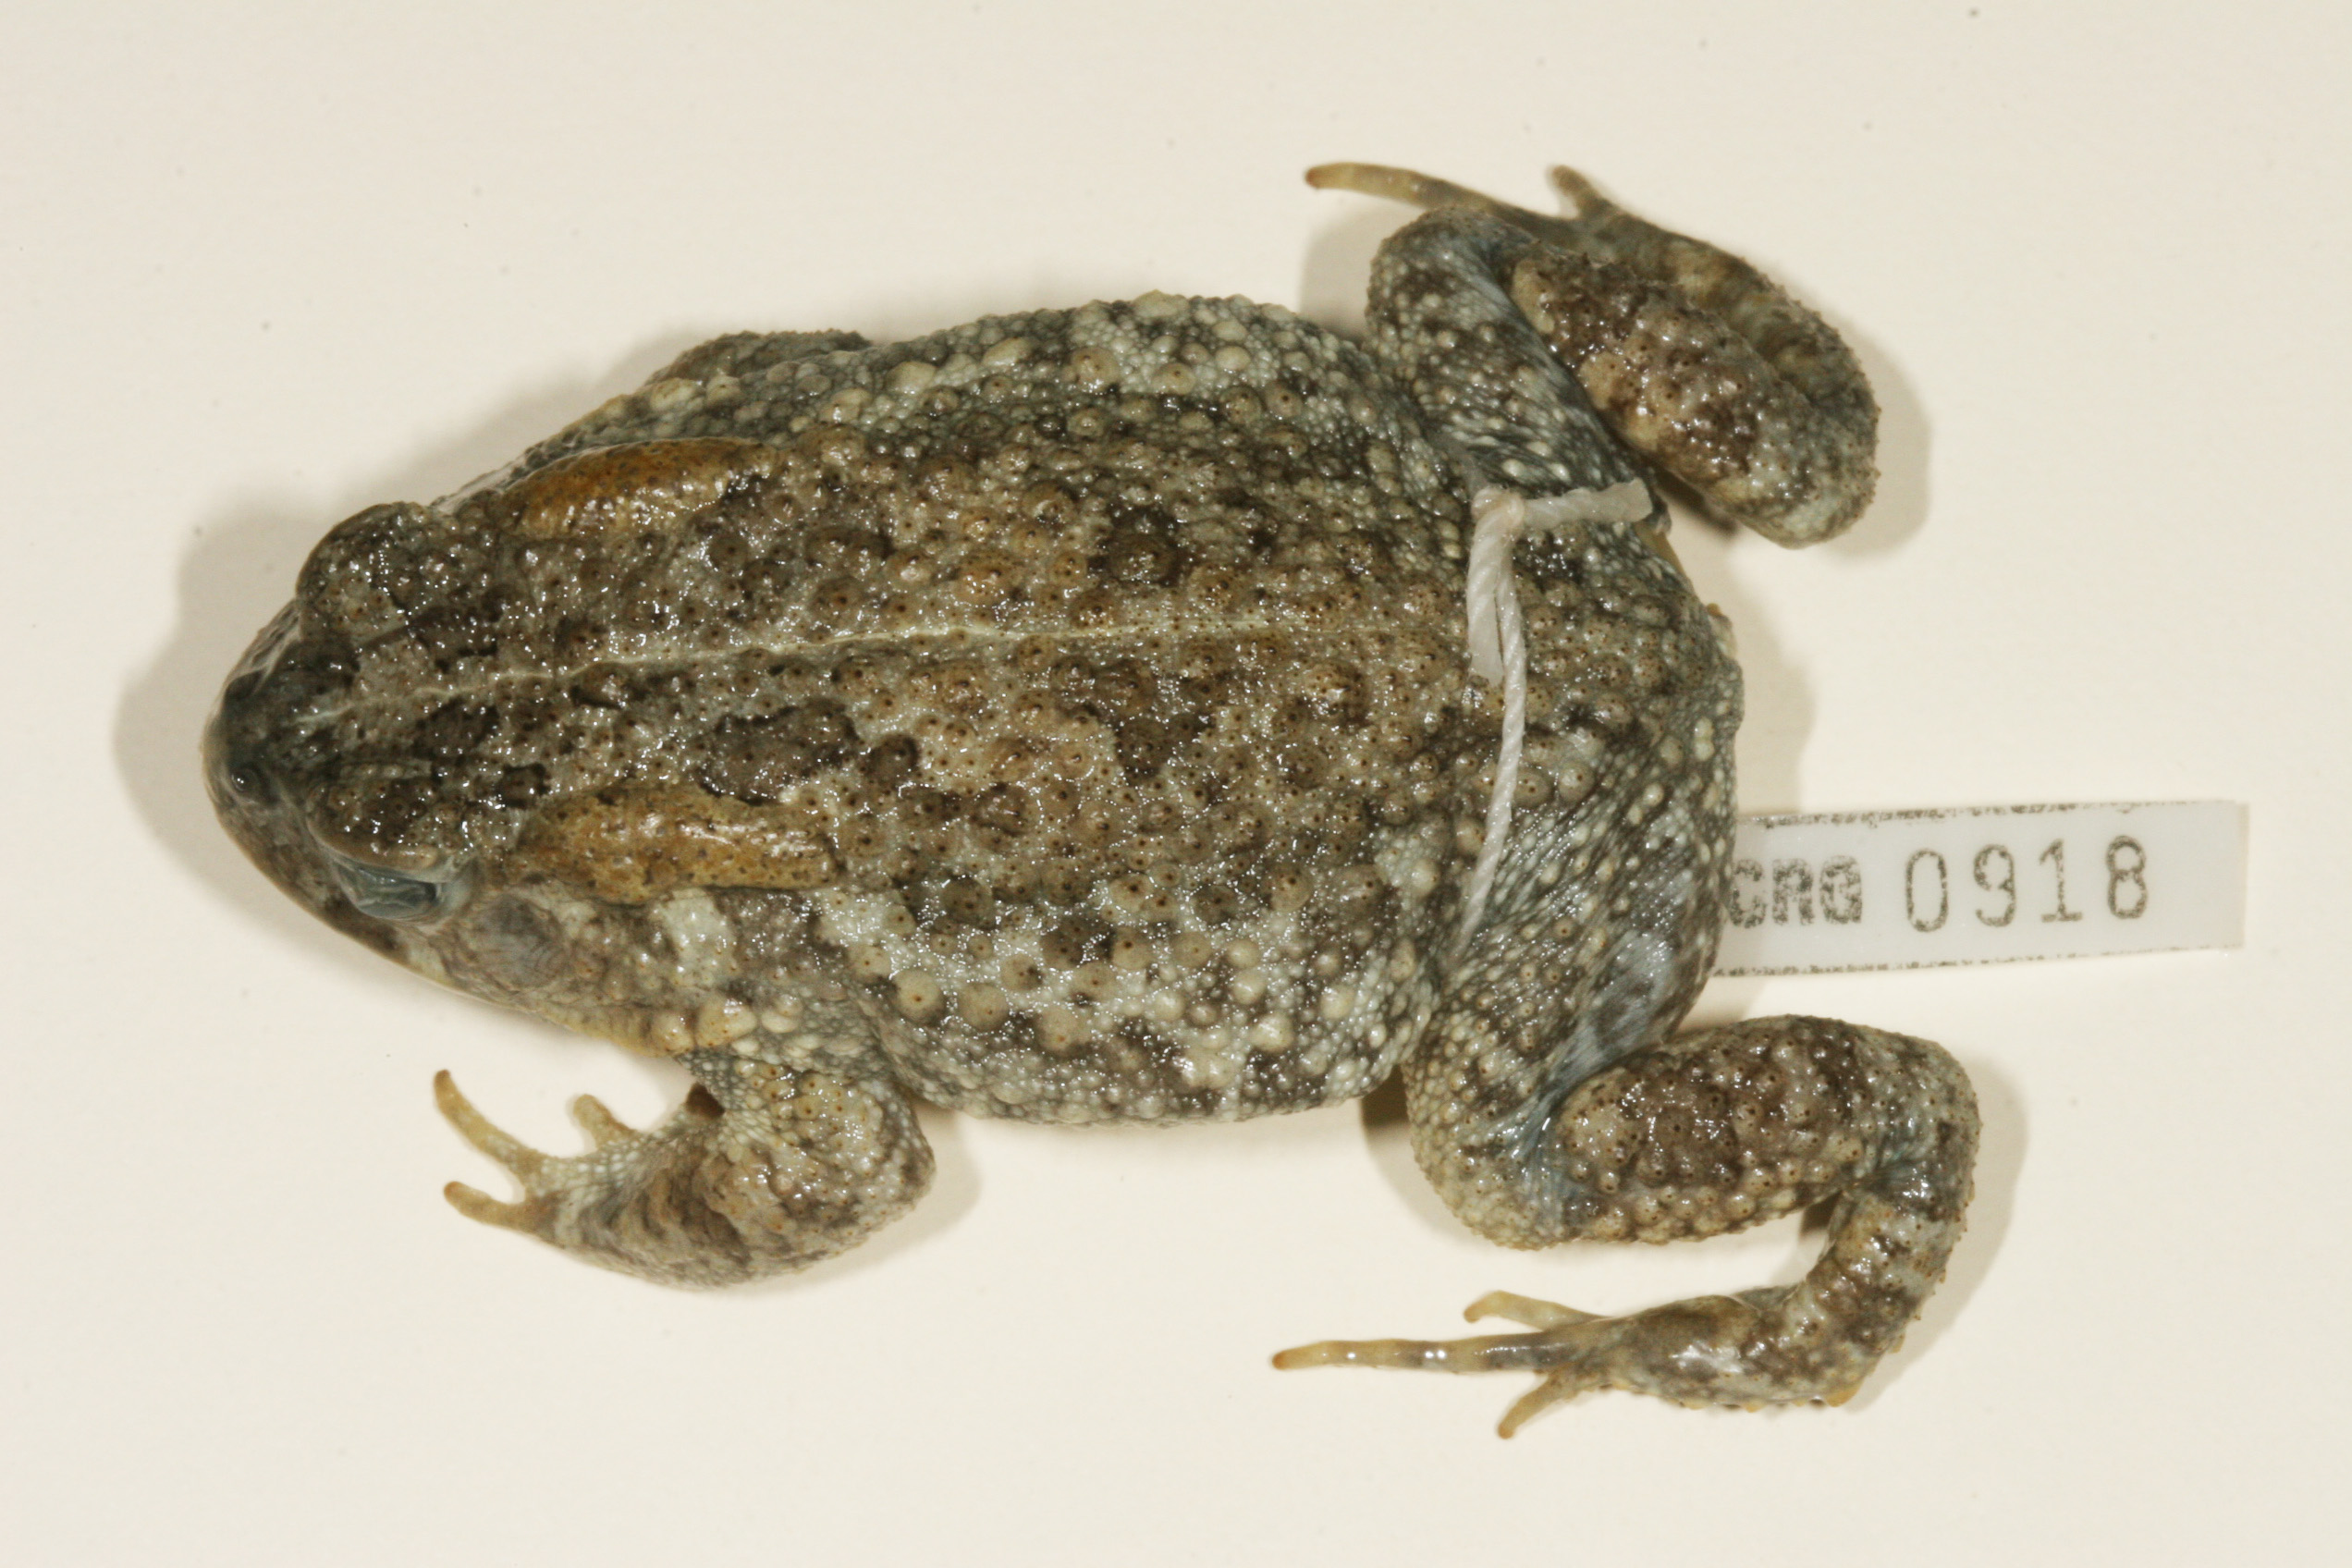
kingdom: Animalia
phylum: Chordata
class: Amphibia
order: Anura
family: Bufonidae
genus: Sclerophrys
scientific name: Sclerophrys maculata
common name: Hallowell's toad
